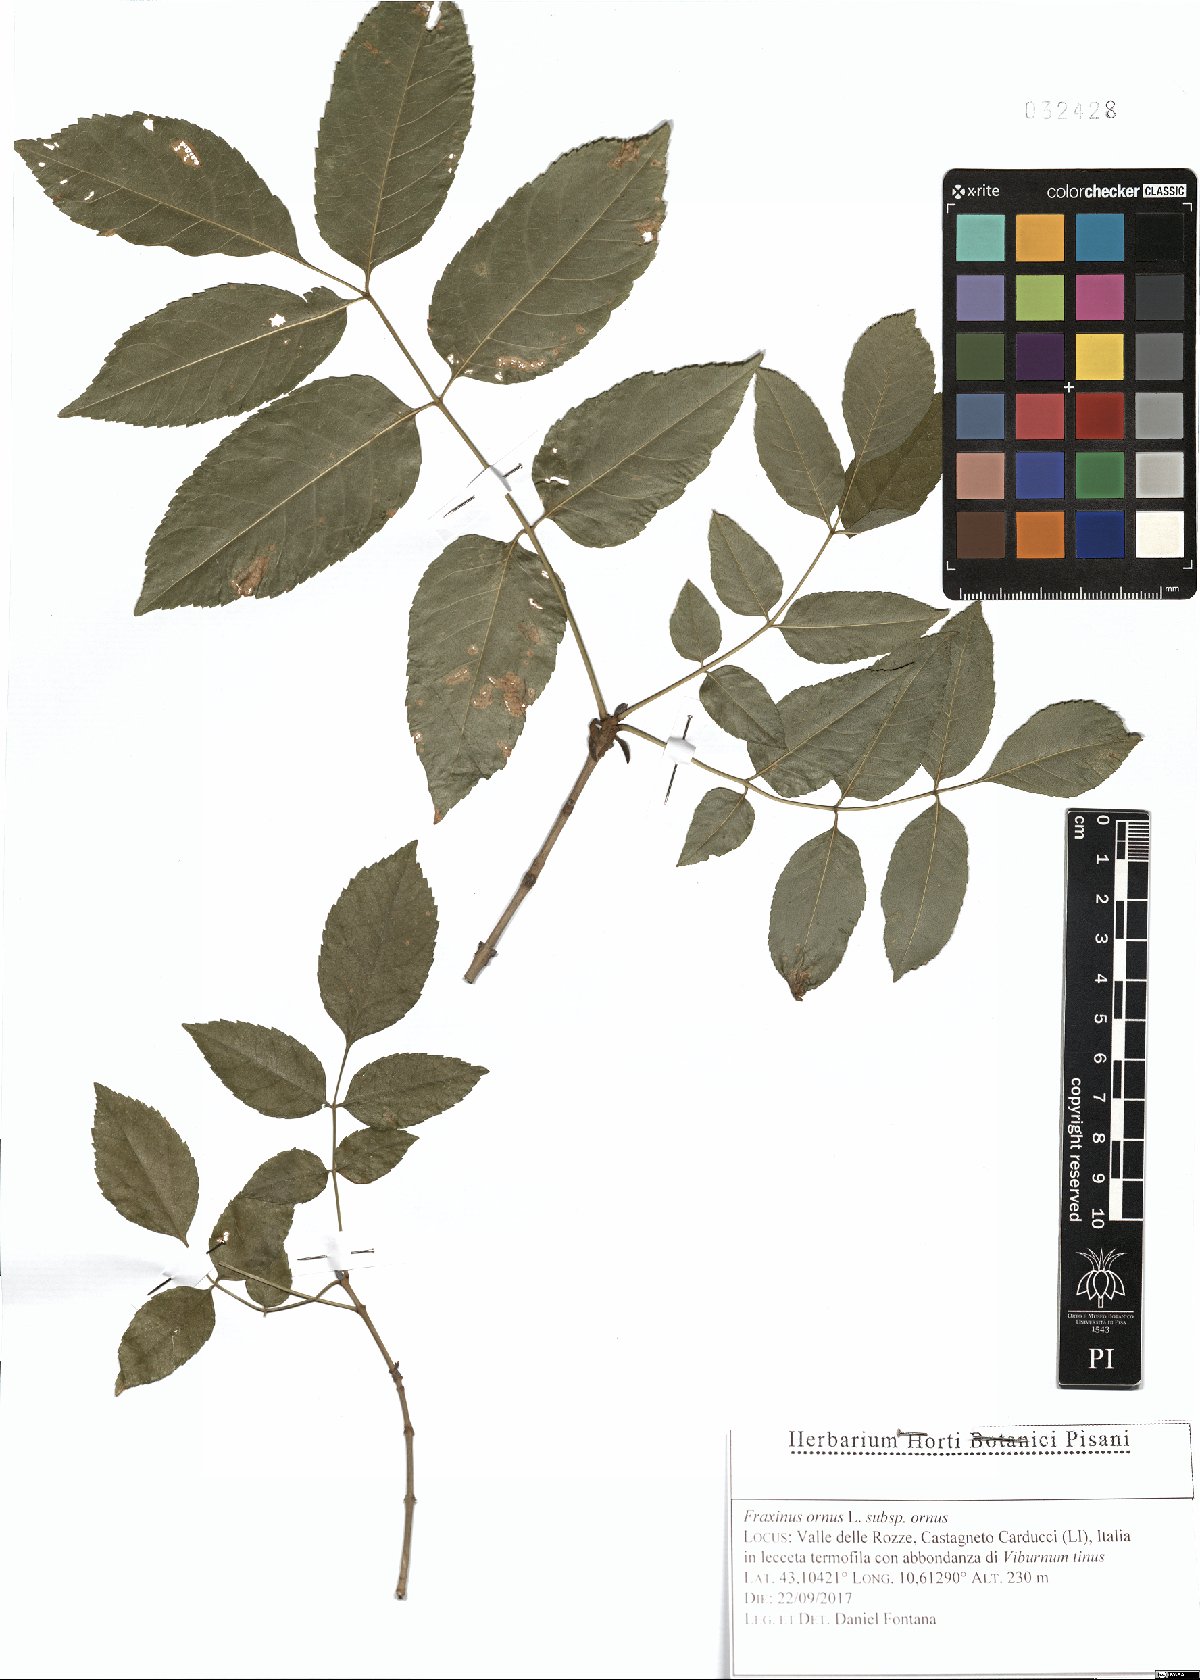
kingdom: Plantae
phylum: Tracheophyta
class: Magnoliopsida
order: Lamiales
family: Oleaceae
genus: Fraxinus
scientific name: Fraxinus ornus
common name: Manna ash
